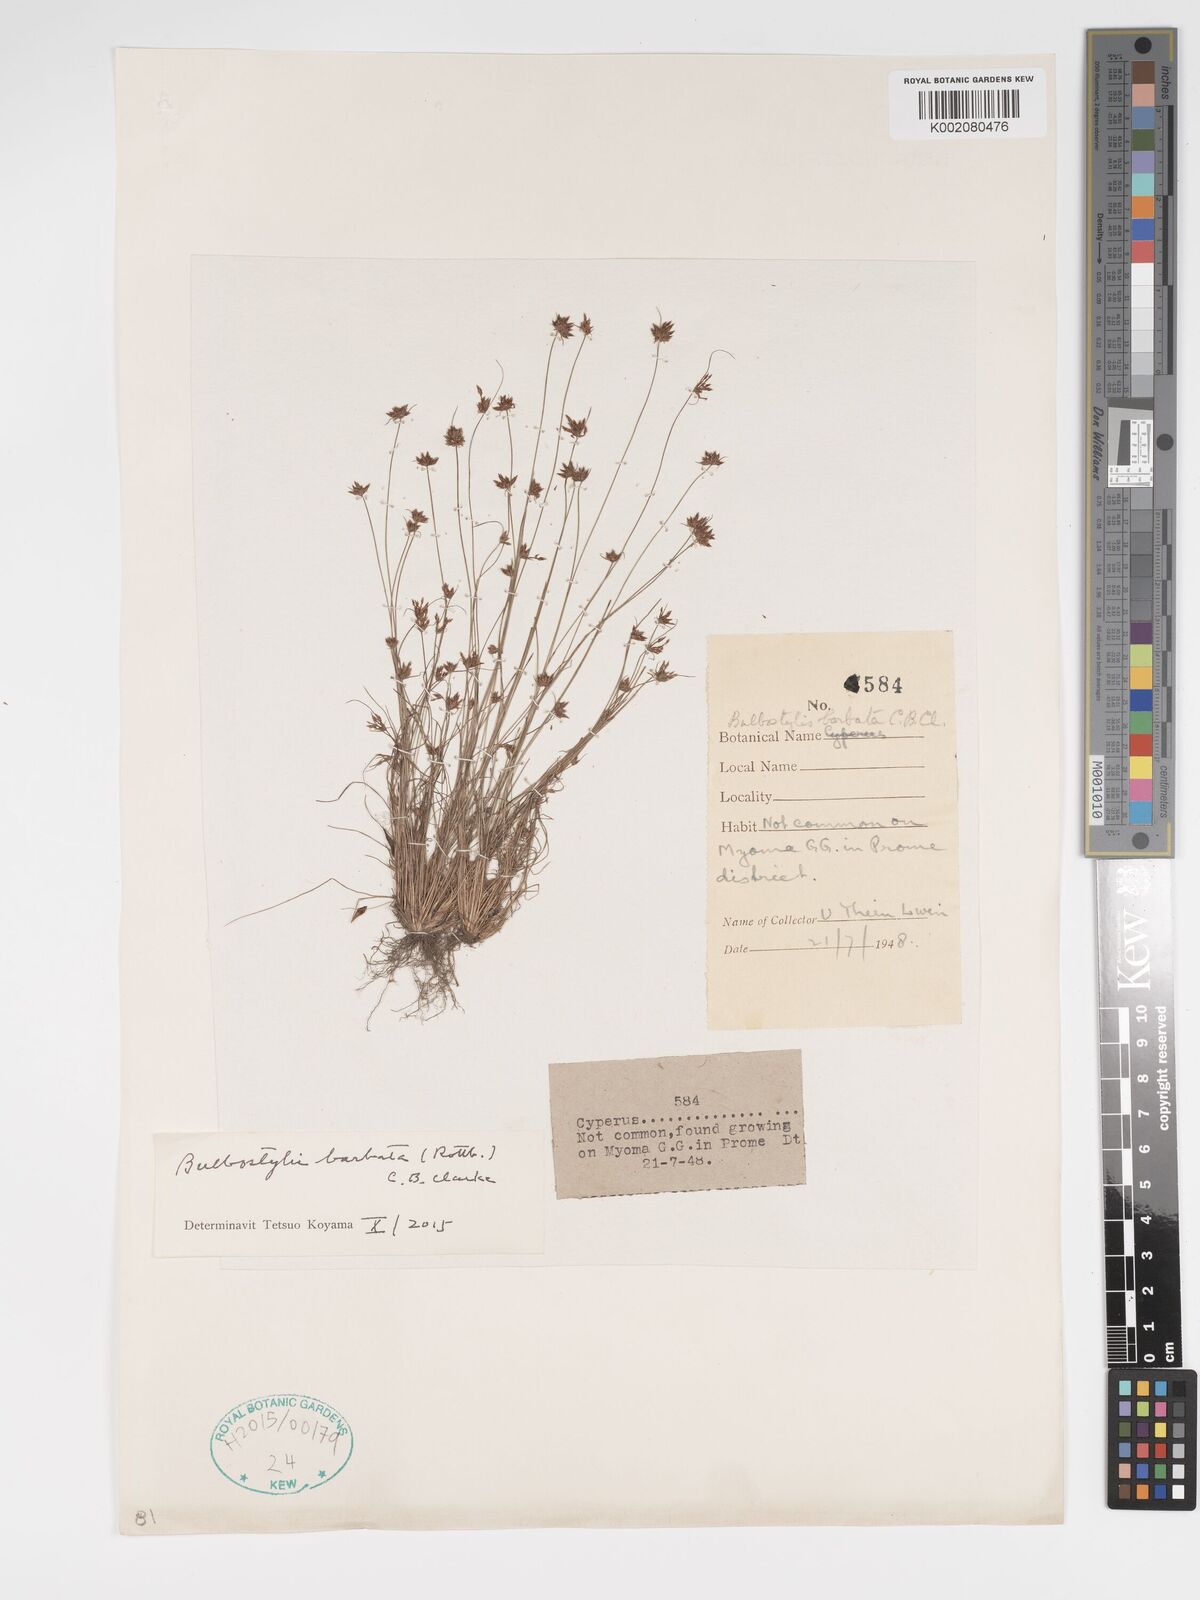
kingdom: Plantae
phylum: Tracheophyta
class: Liliopsida
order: Poales
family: Cyperaceae
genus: Bulbostylis
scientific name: Bulbostylis barbata
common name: Watergrass
